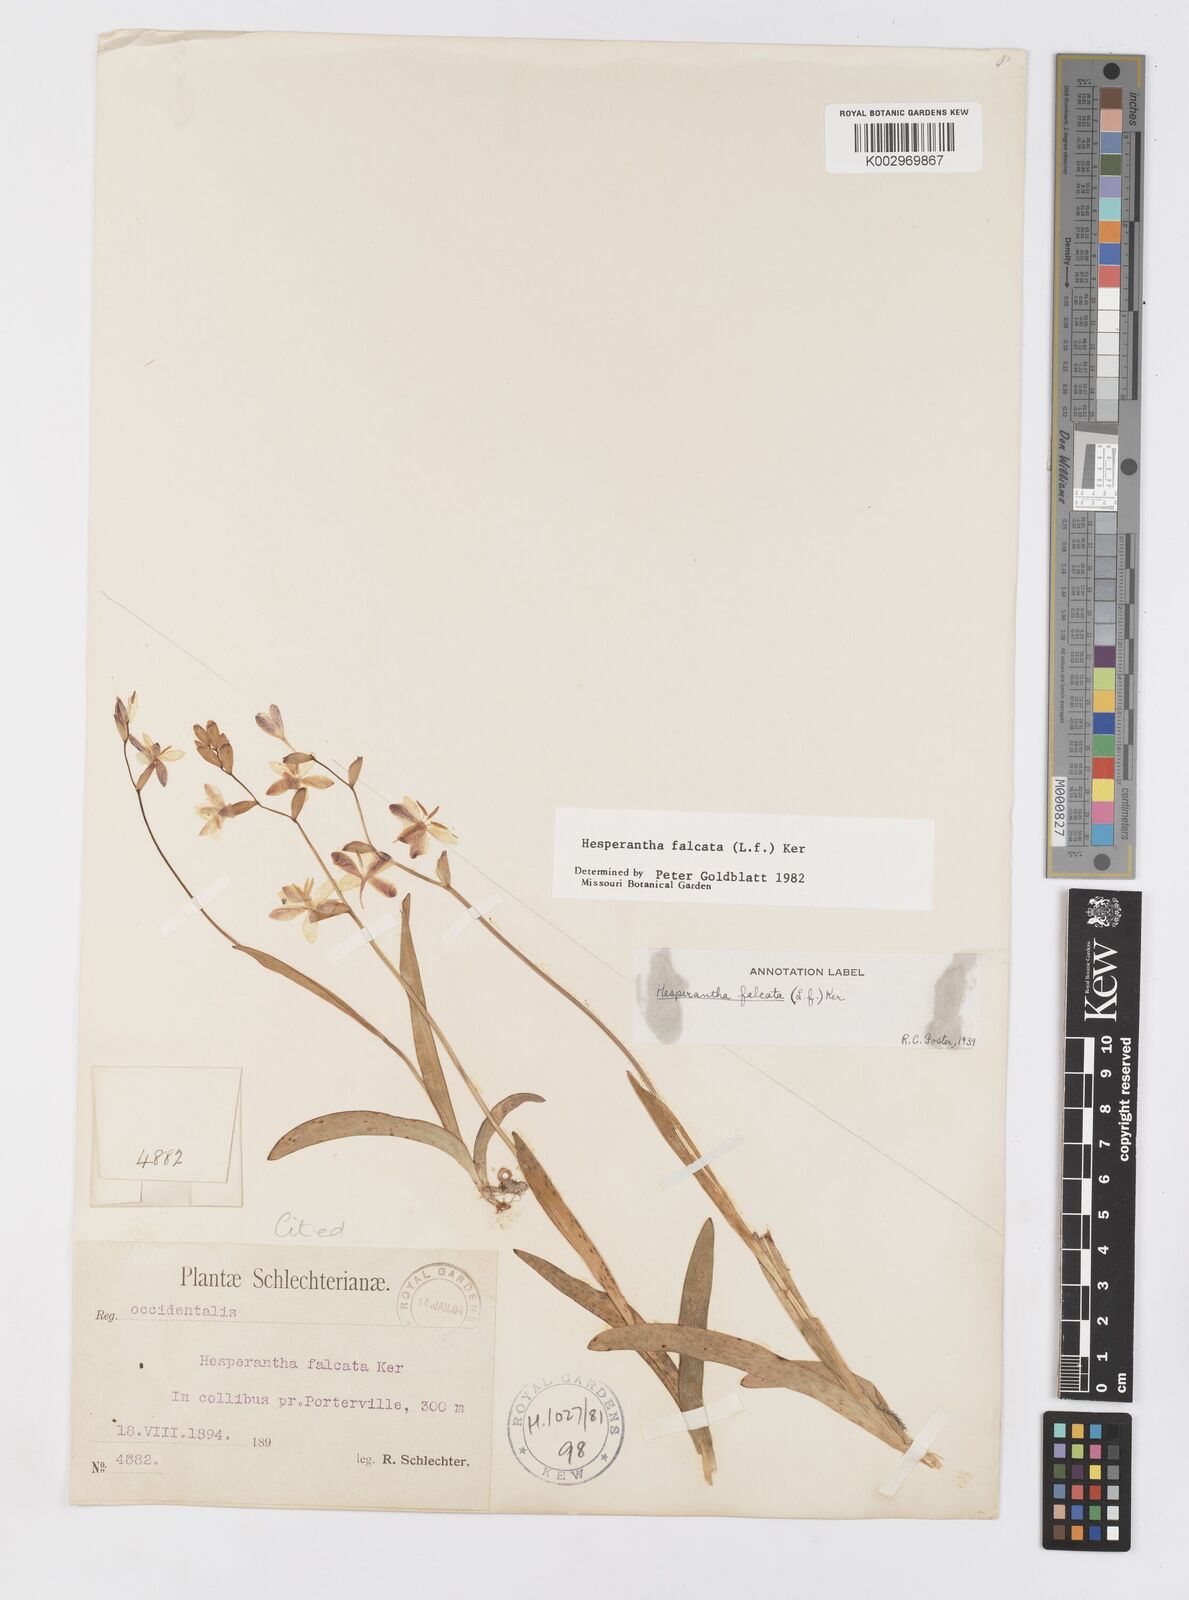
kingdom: Plantae
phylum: Tracheophyta
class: Liliopsida
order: Asparagales
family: Iridaceae
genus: Hesperantha
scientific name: Hesperantha falcata
